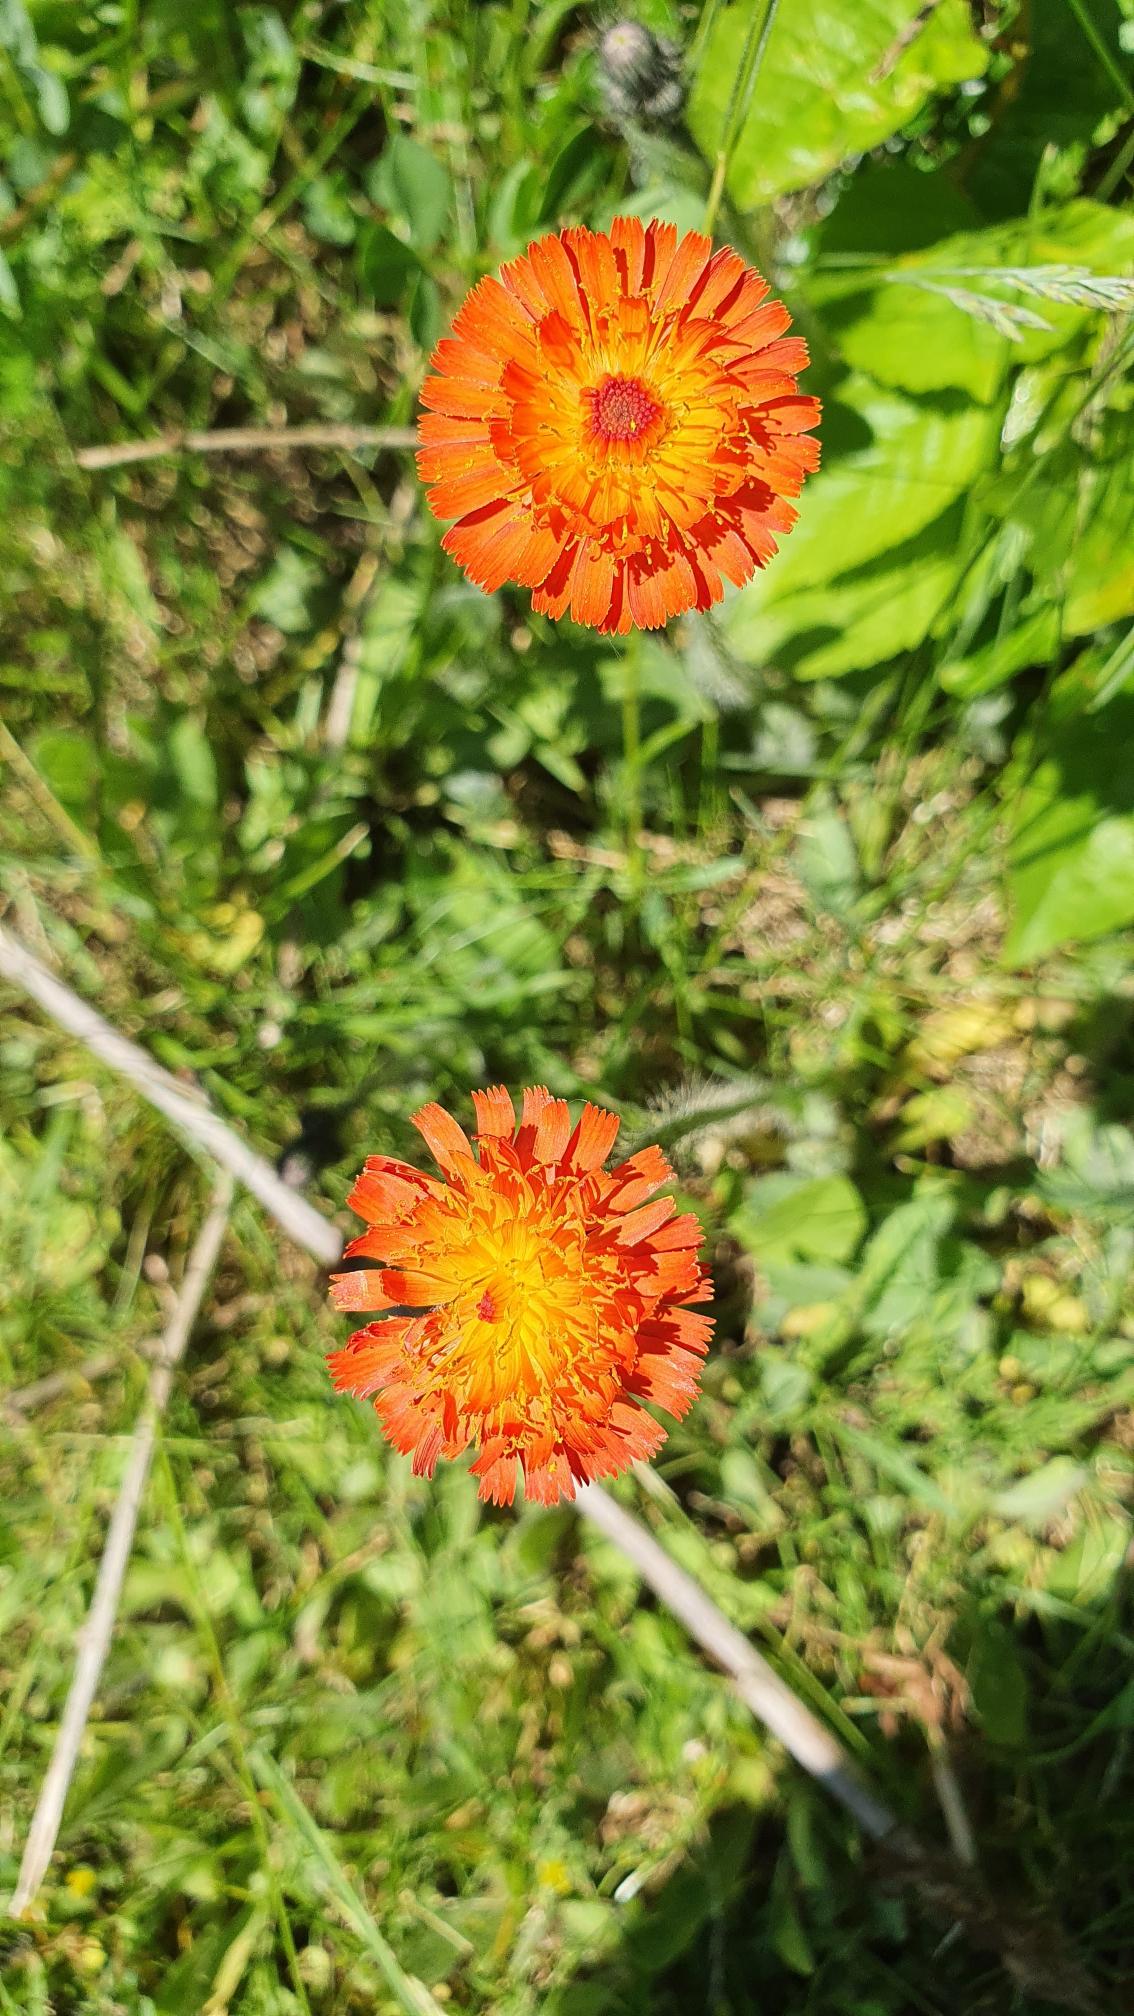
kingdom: Plantae
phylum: Tracheophyta
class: Magnoliopsida
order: Asterales
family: Asteraceae
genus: Pilosella
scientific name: Pilosella aurantiaca
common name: Pomerans-høgeurt
